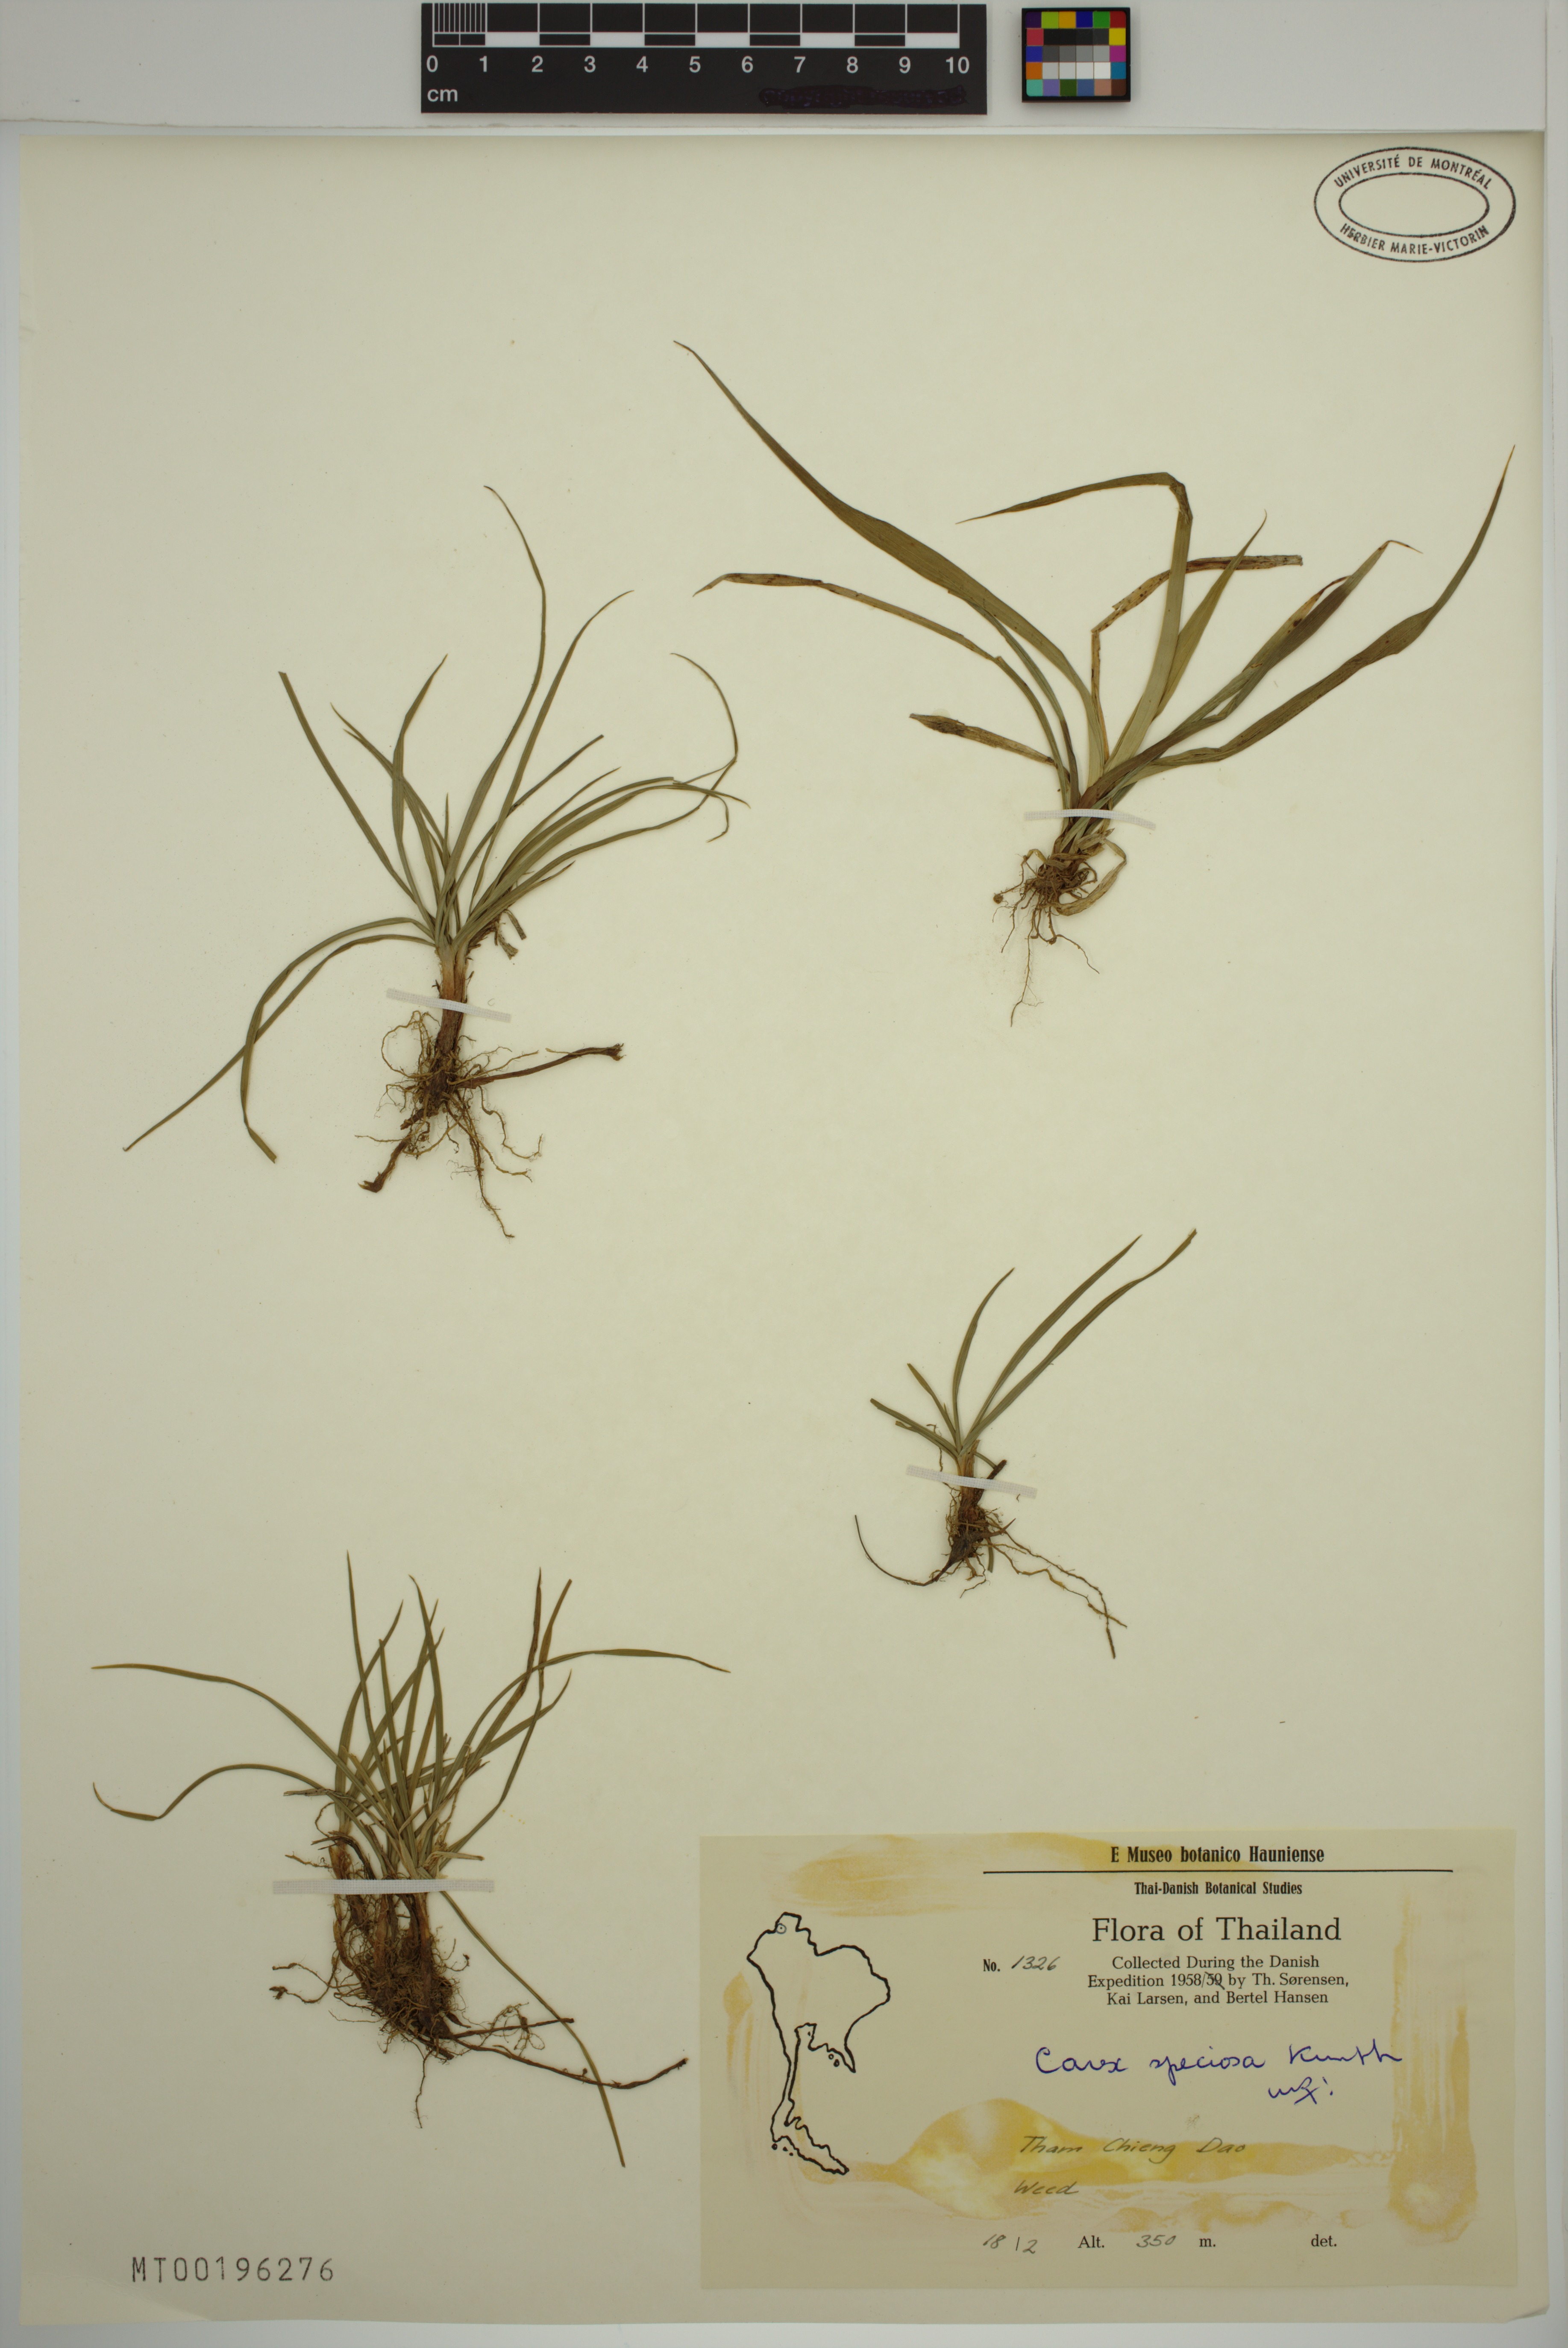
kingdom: Plantae
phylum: Tracheophyta
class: Liliopsida
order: Poales
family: Cyperaceae
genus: Carex
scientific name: Carex speciosa
